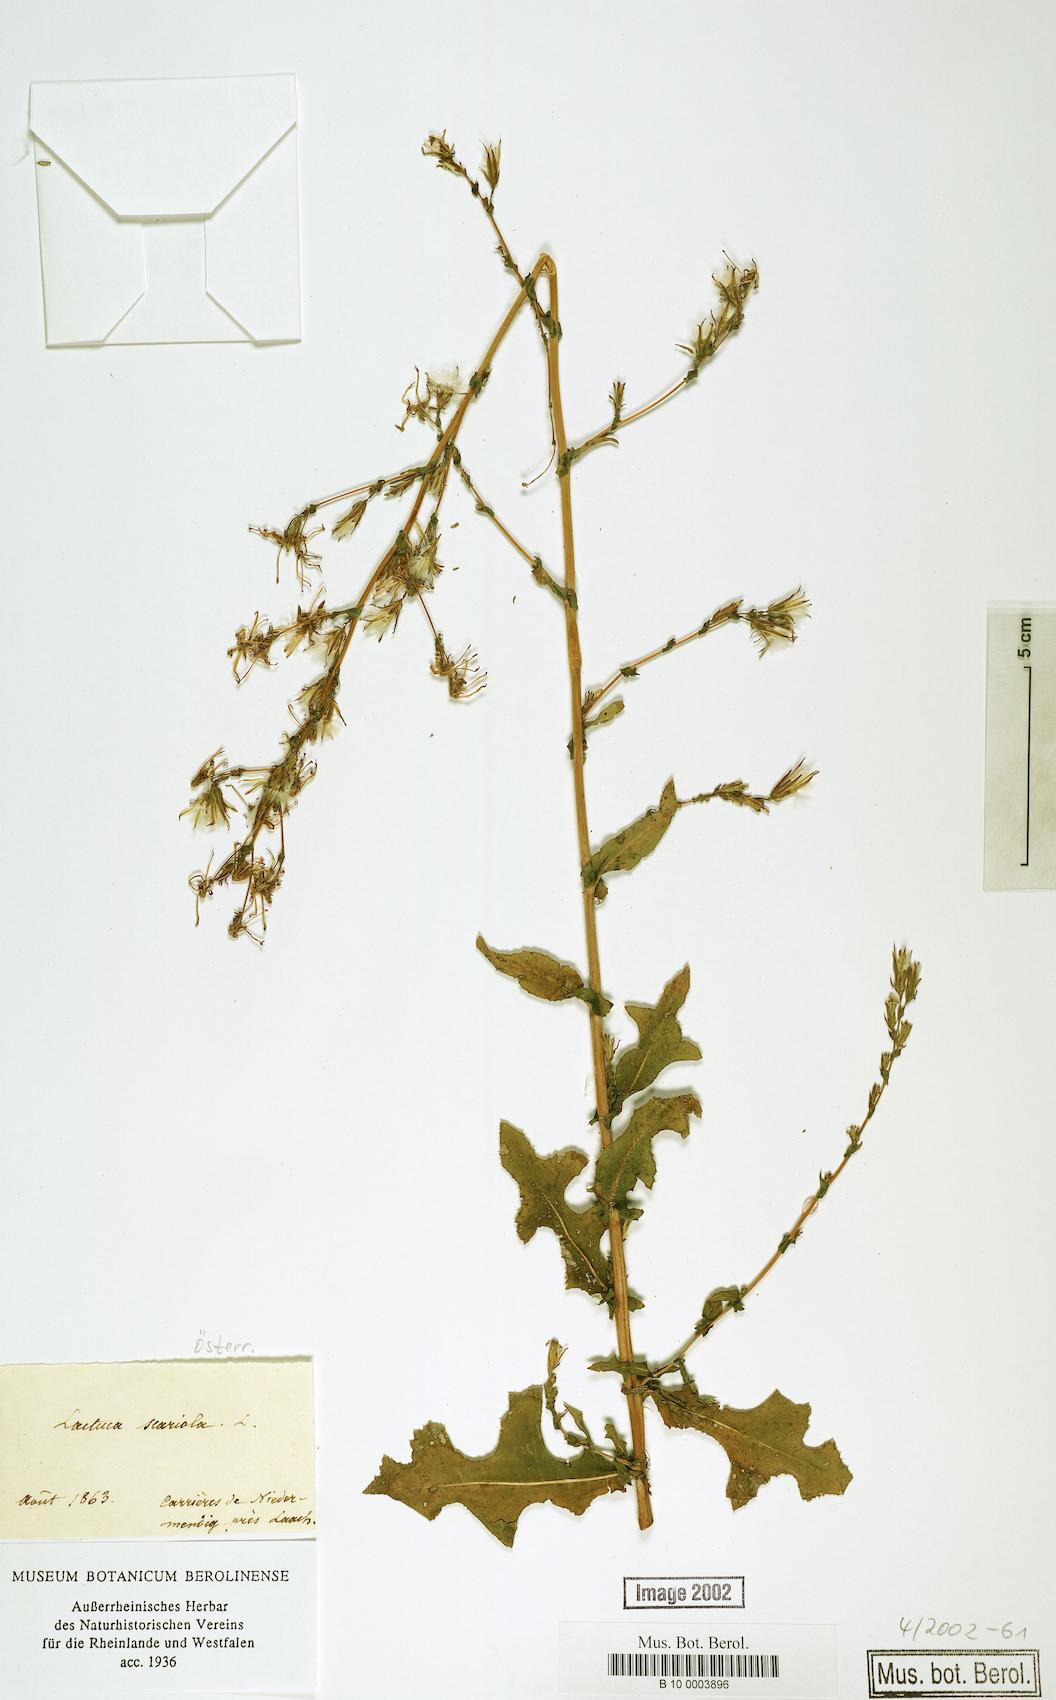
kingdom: Plantae
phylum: Tracheophyta
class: Magnoliopsida
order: Asterales
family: Asteraceae
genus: Lactuca
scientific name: Lactuca serriola
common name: Prickly lettuce
